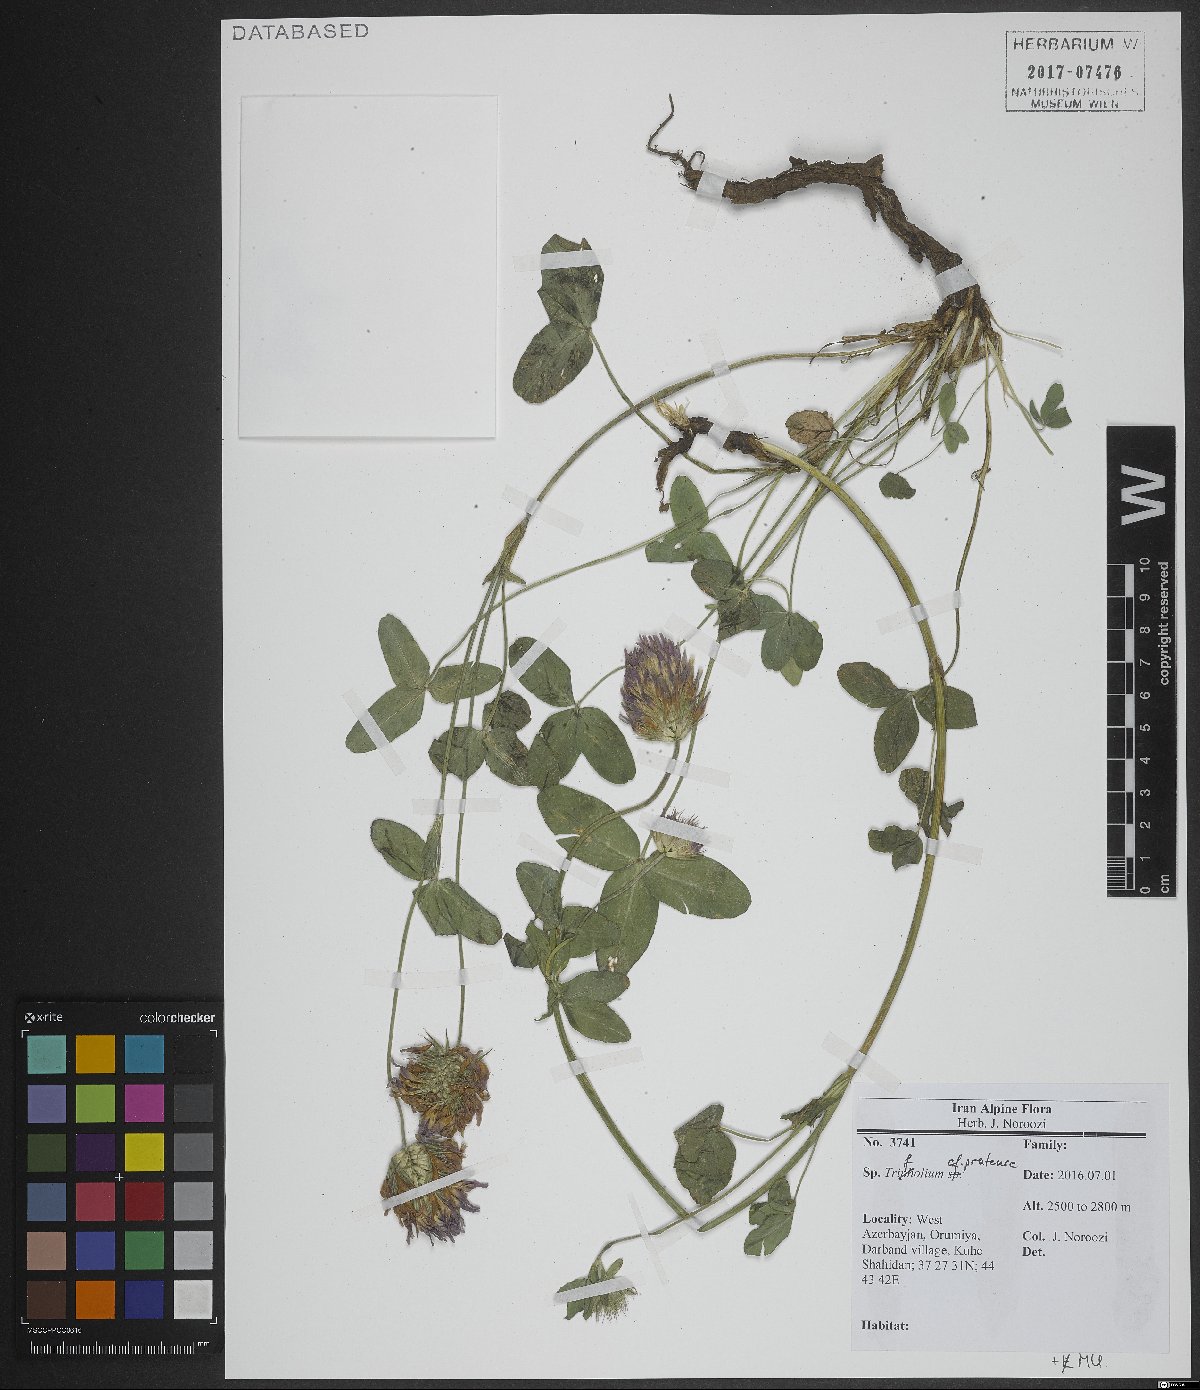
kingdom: Plantae
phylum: Tracheophyta
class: Magnoliopsida
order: Fabales
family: Fabaceae
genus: Trifolium
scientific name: Trifolium pratense
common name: Red clover
